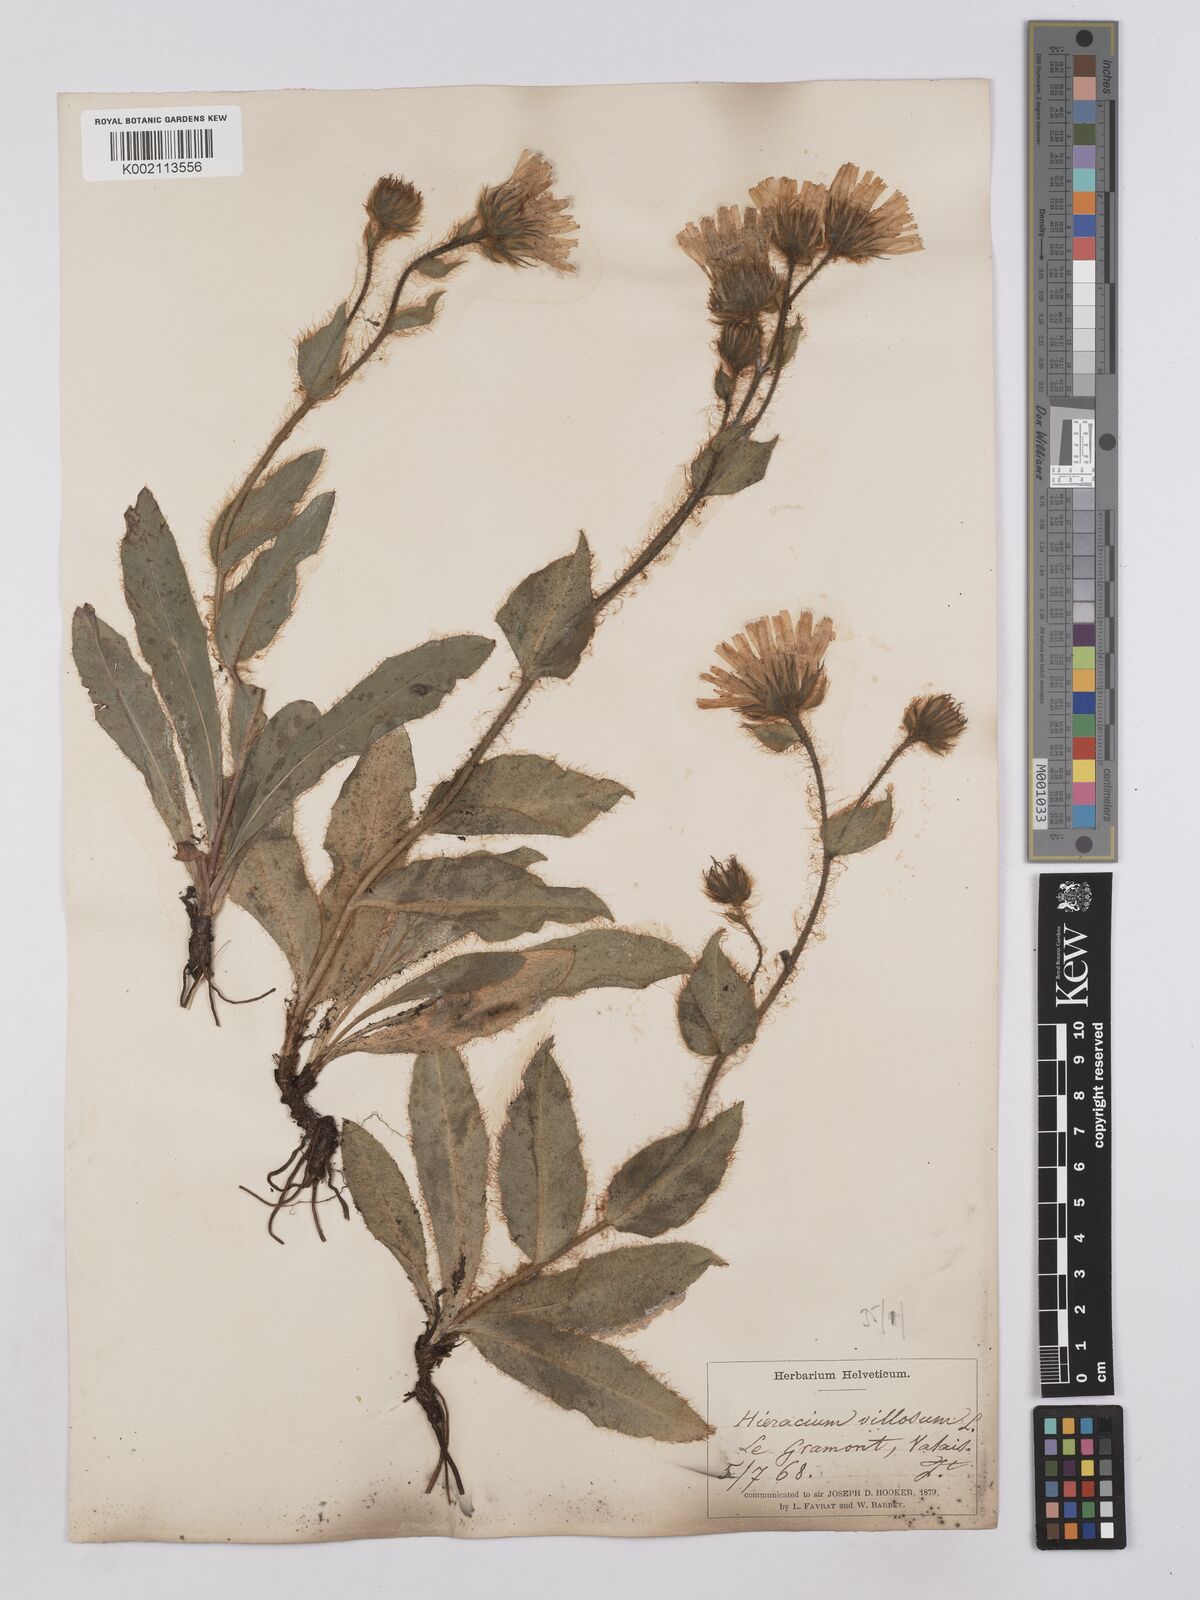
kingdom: Plantae
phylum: Tracheophyta
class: Magnoliopsida
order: Asterales
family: Asteraceae
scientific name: Asteraceae
